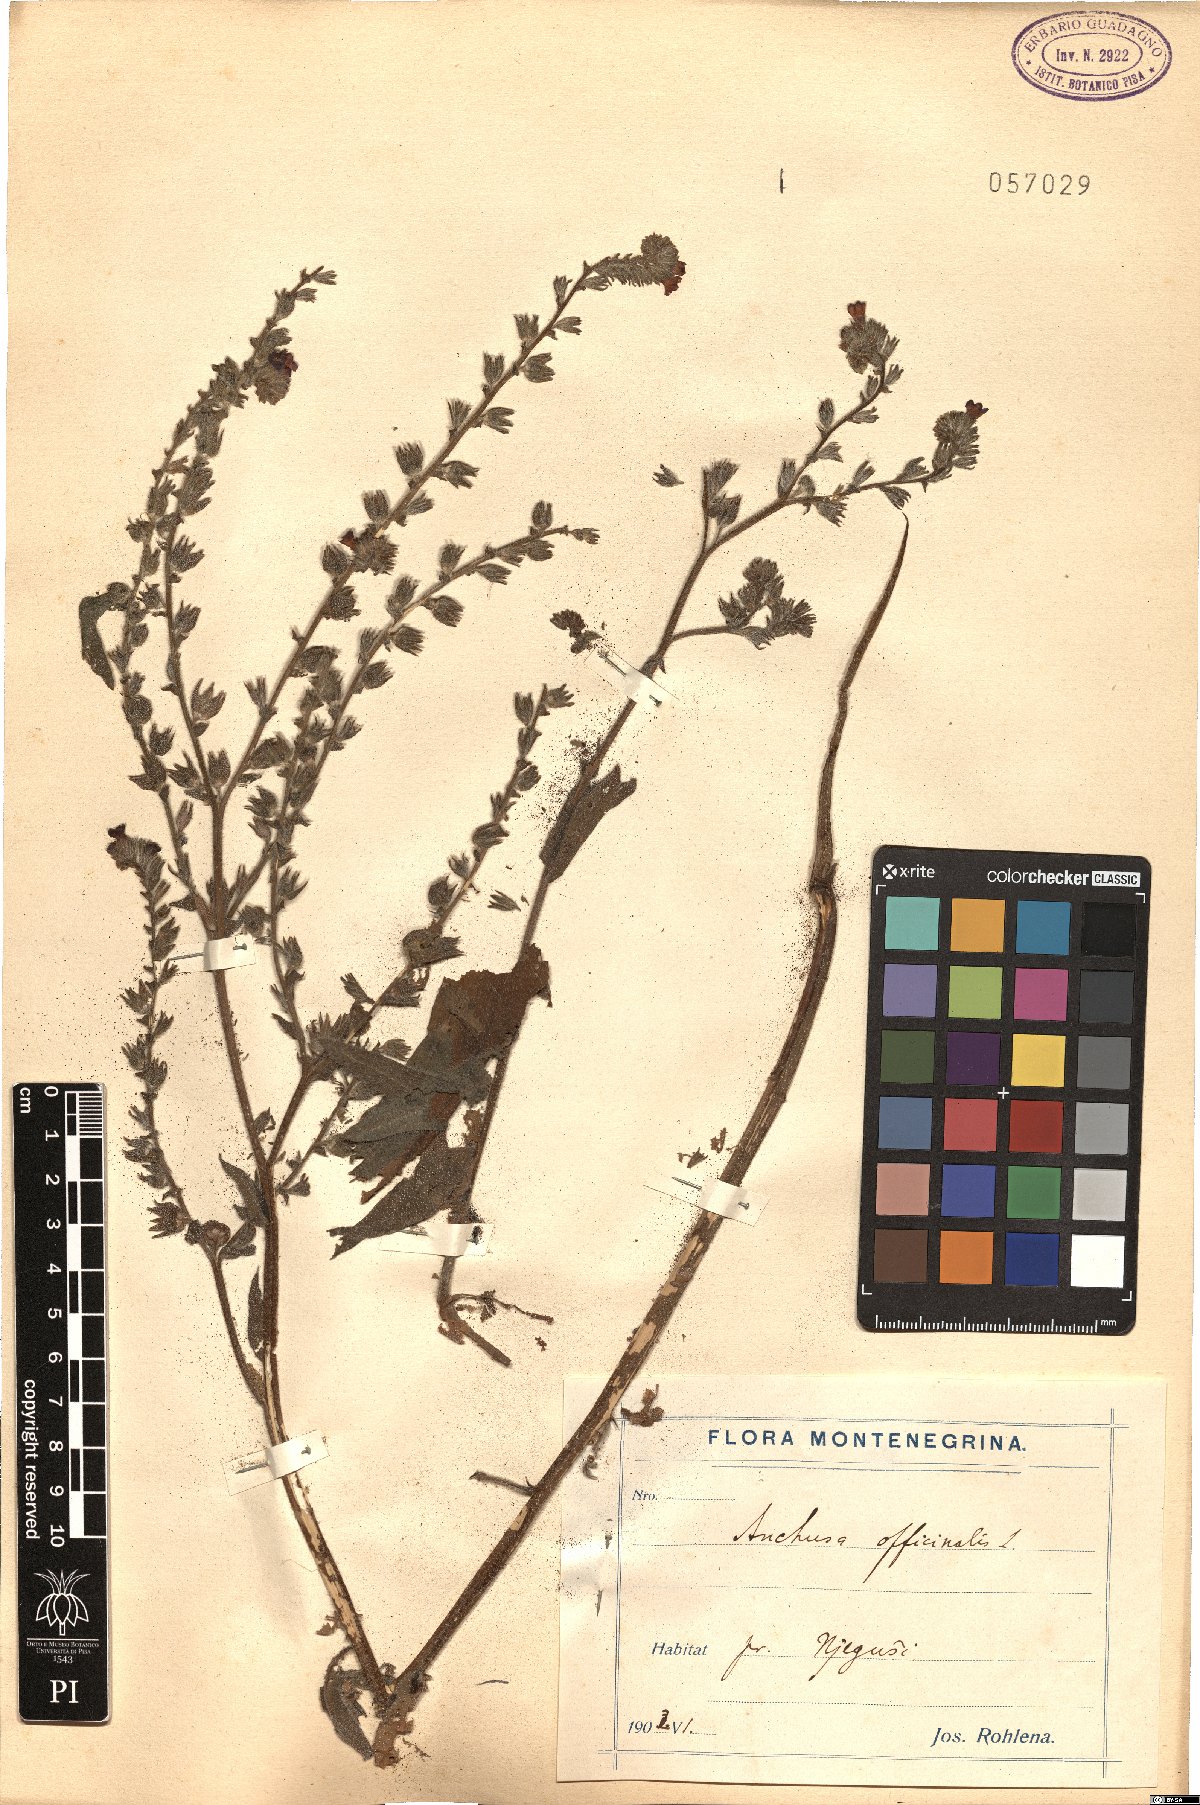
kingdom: Plantae
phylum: Tracheophyta
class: Magnoliopsida
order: Boraginales
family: Boraginaceae
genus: Anchusa
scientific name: Anchusa officinalis
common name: Alkanet
